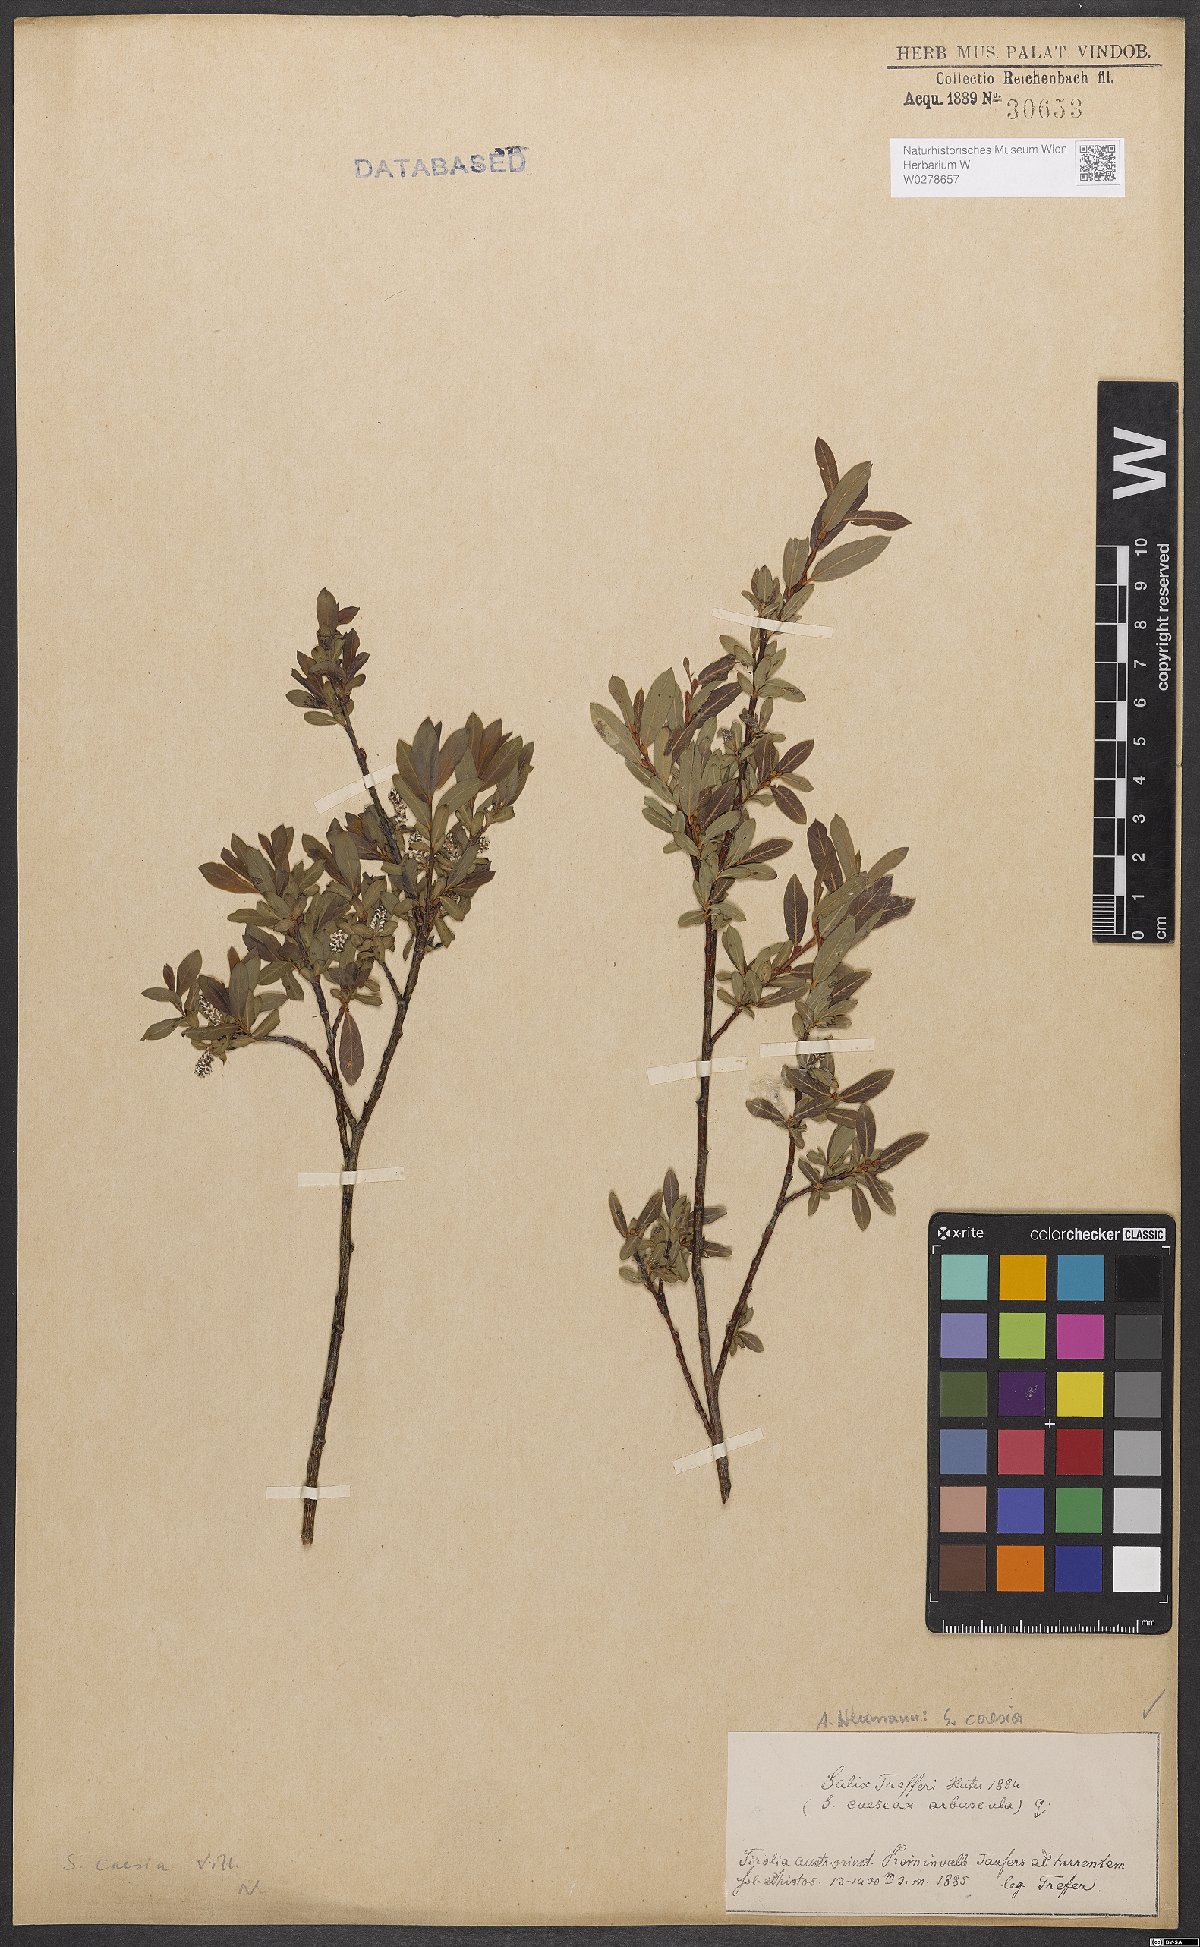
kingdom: Plantae
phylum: Tracheophyta
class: Magnoliopsida
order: Malpighiales
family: Salicaceae
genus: Salix
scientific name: Salix caesia
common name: Blue willow
